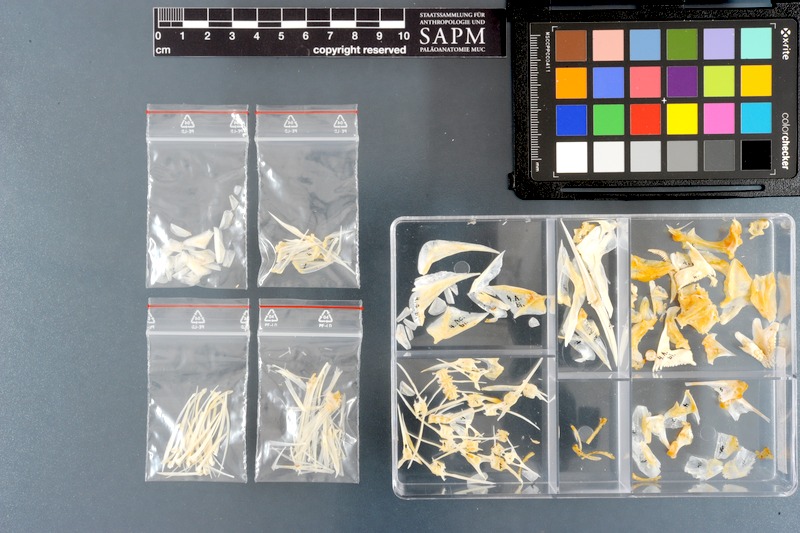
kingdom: Animalia
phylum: Chordata
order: Perciformes
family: Sparidae
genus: Acanthopagrus
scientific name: Acanthopagrus bifasciatus
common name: Twobar seabream
